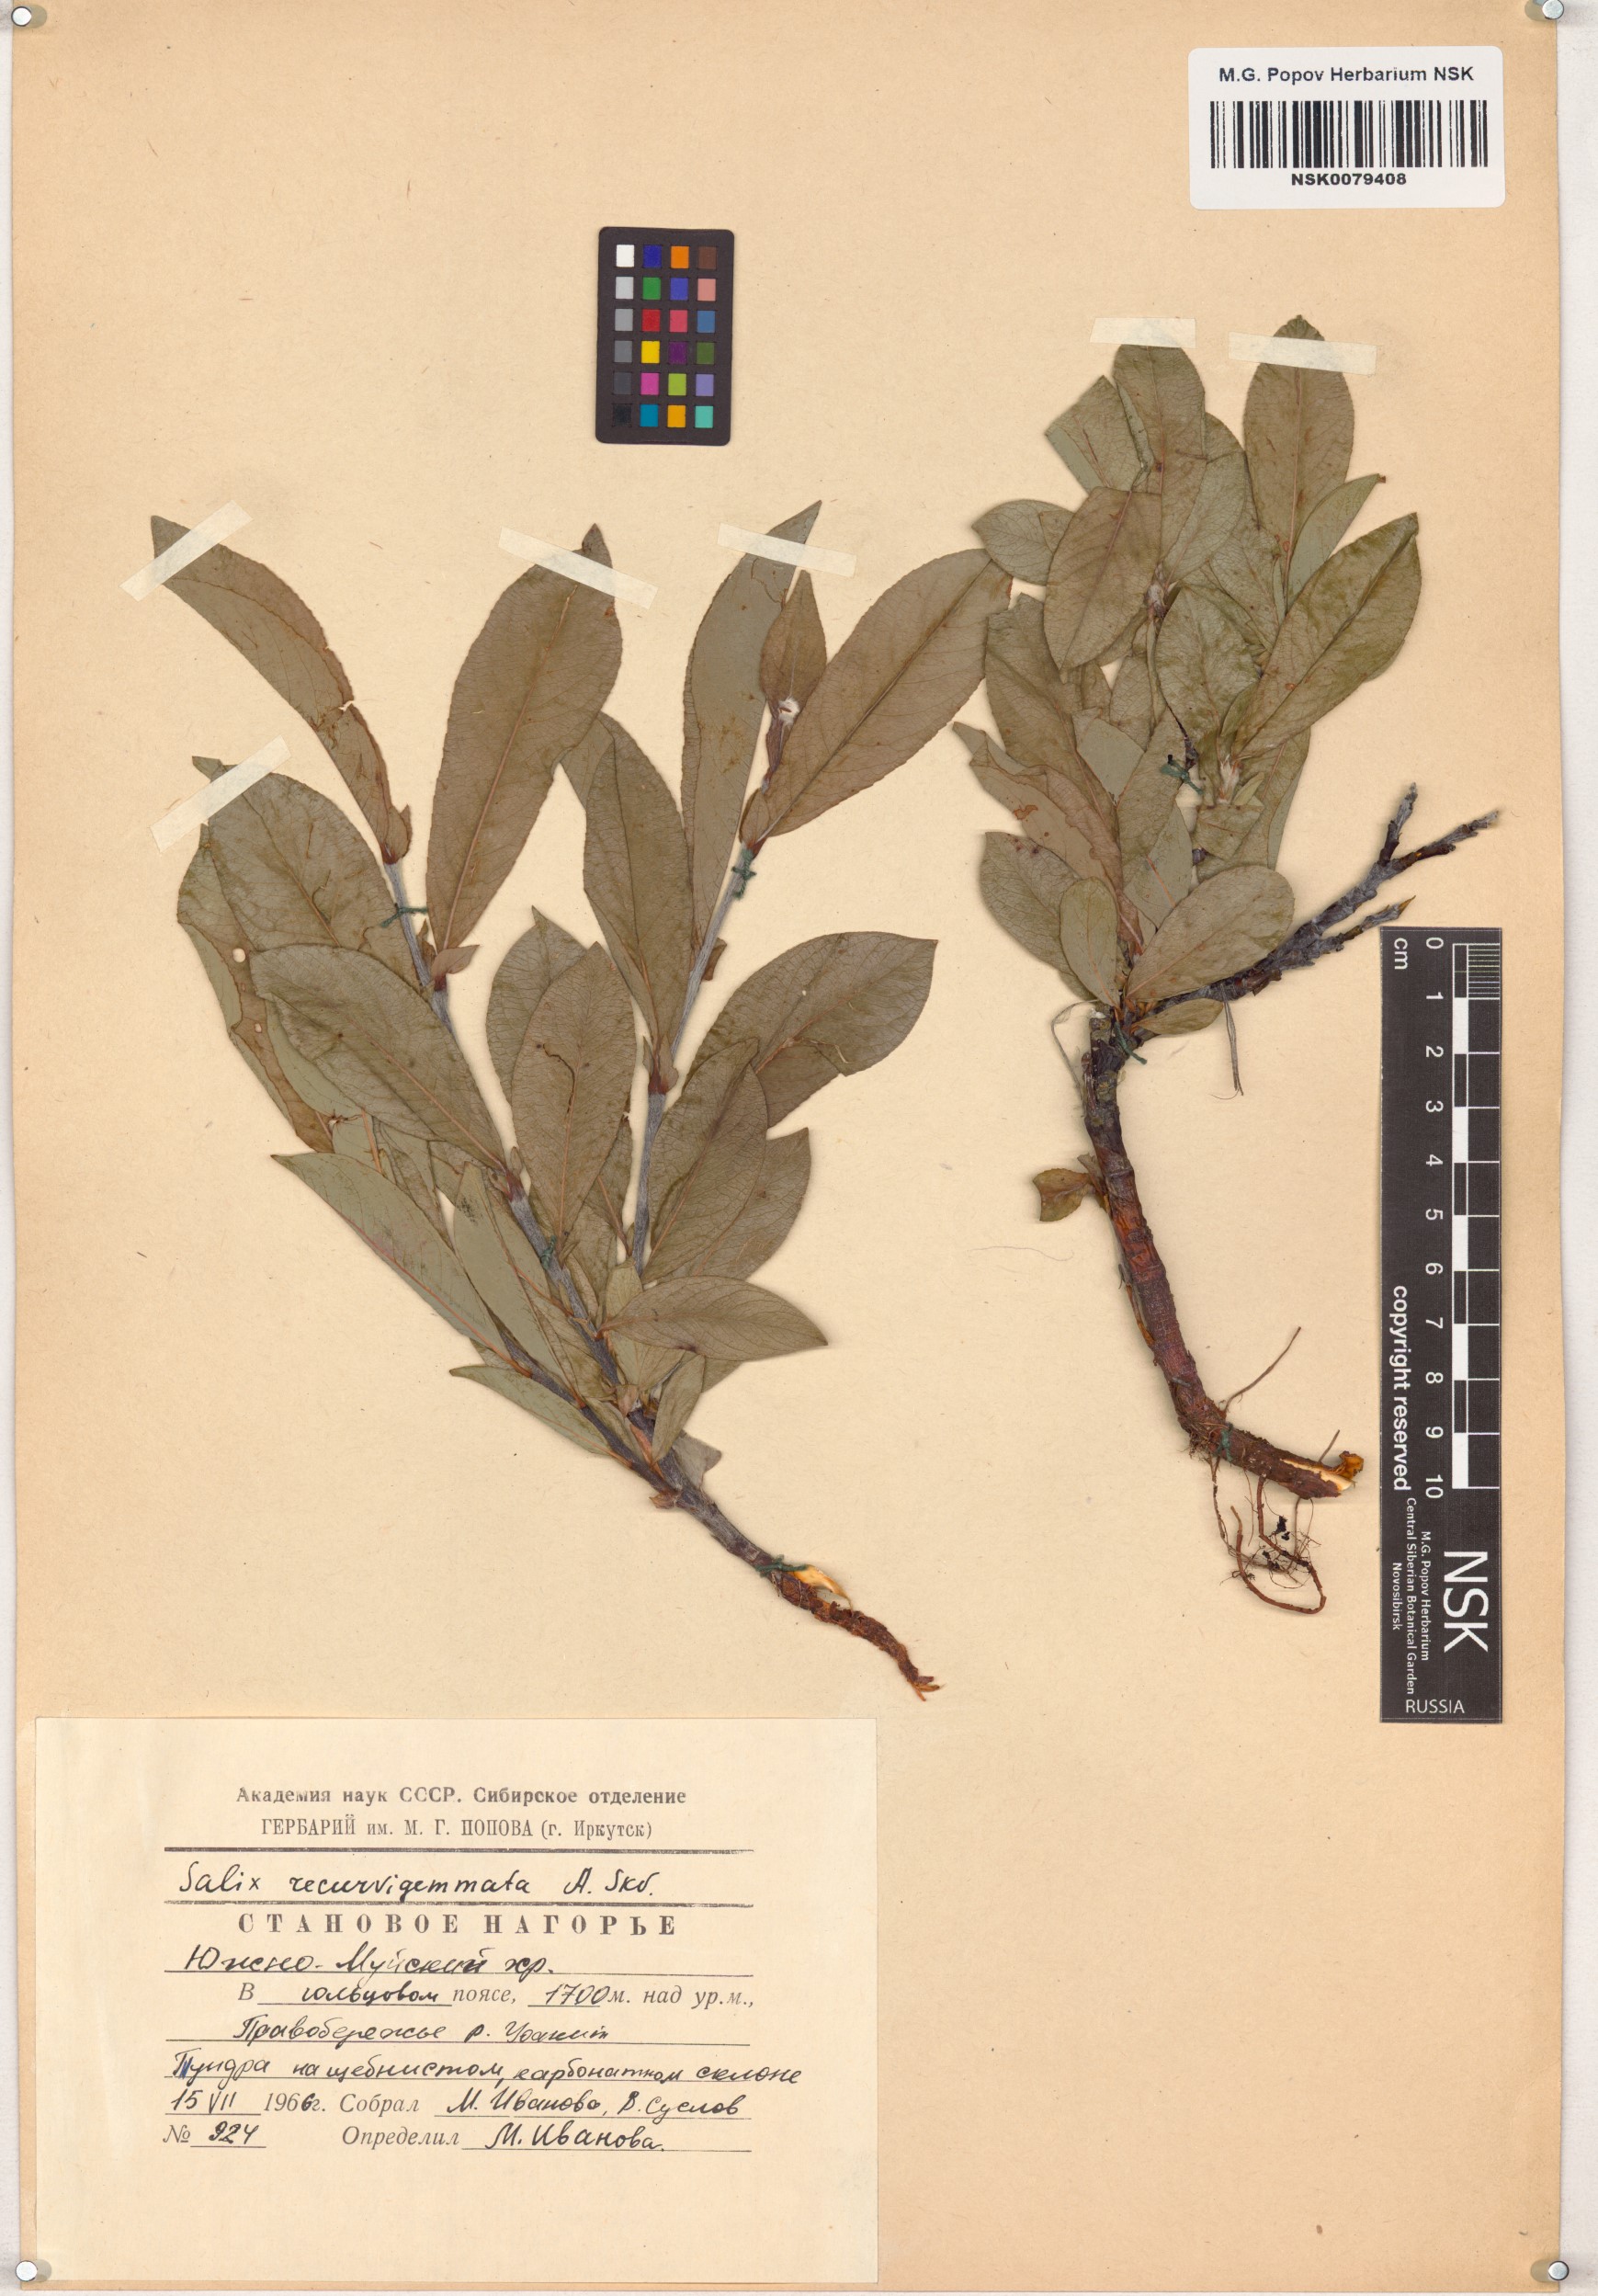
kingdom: Plantae
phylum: Tracheophyta
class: Magnoliopsida
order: Malpighiales
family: Salicaceae
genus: Salix
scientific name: Salix recurvigemmata
